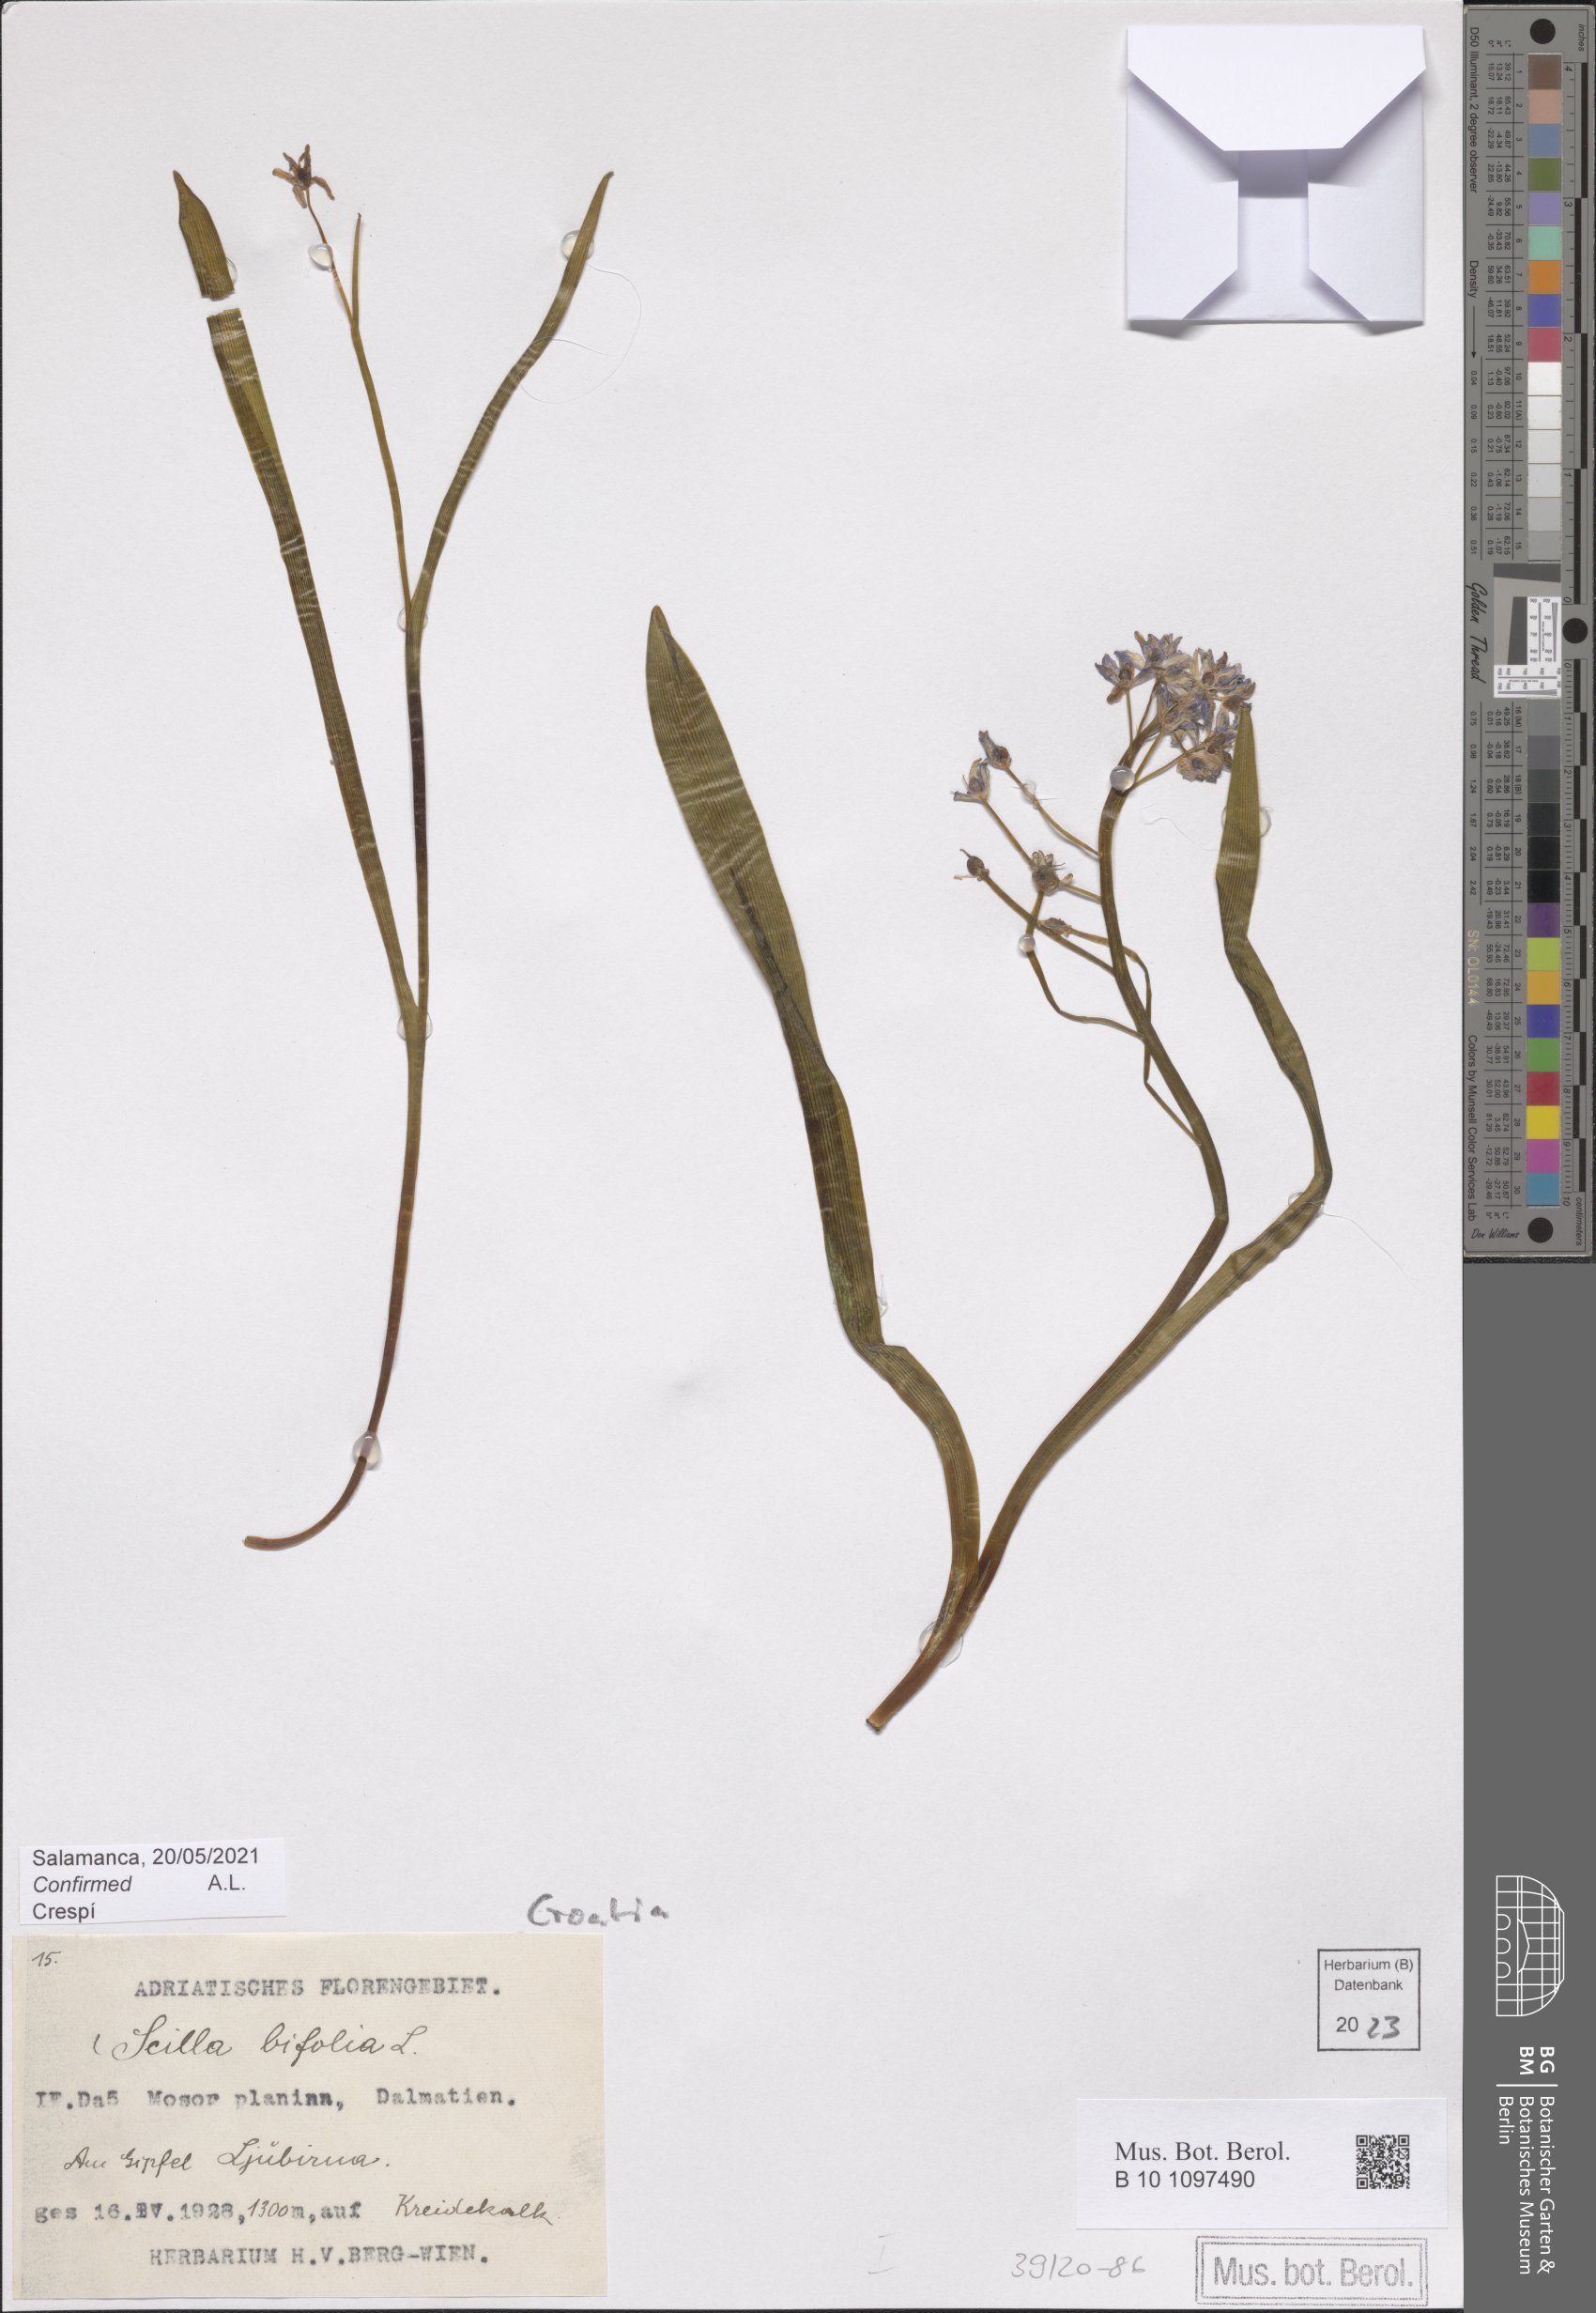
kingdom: Plantae
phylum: Tracheophyta
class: Liliopsida
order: Asparagales
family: Asparagaceae
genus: Scilla
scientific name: Scilla bifolia
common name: Alpine squill
